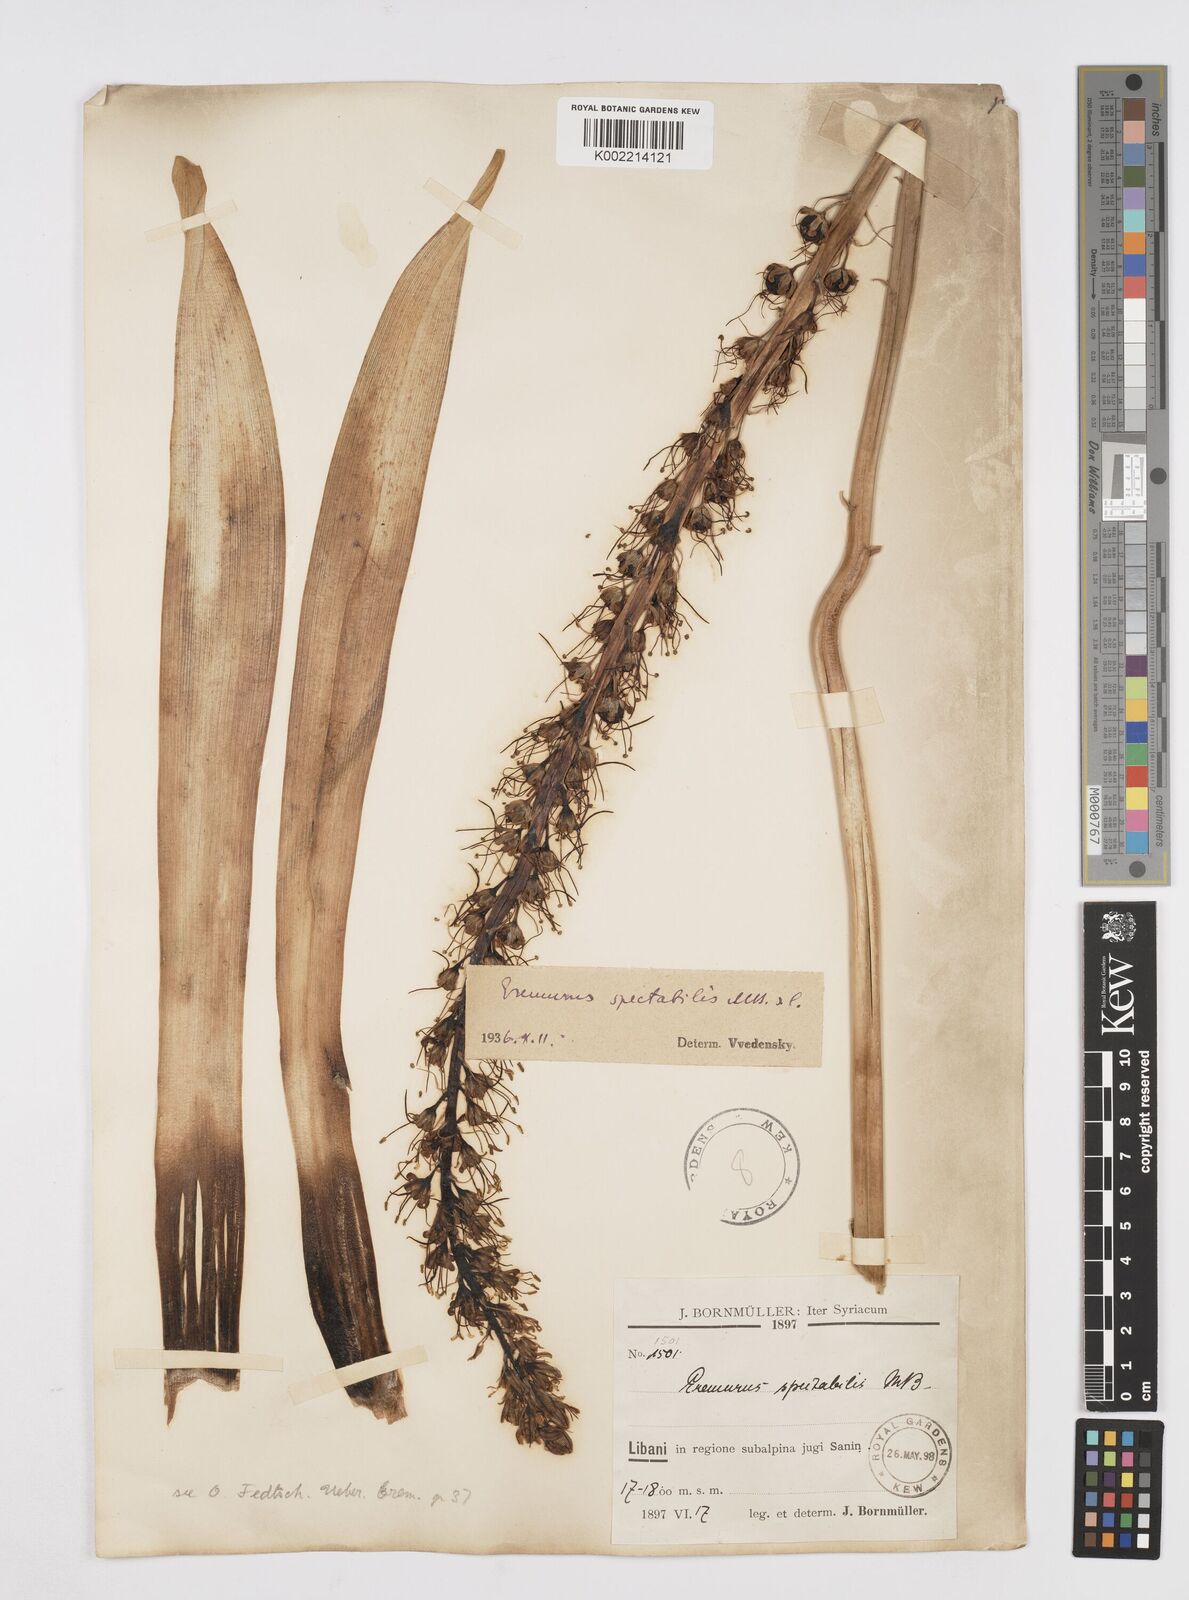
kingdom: Plantae
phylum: Tracheophyta
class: Liliopsida
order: Asparagales
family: Asphodelaceae
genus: Eremurus
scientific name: Eremurus spectabilis
